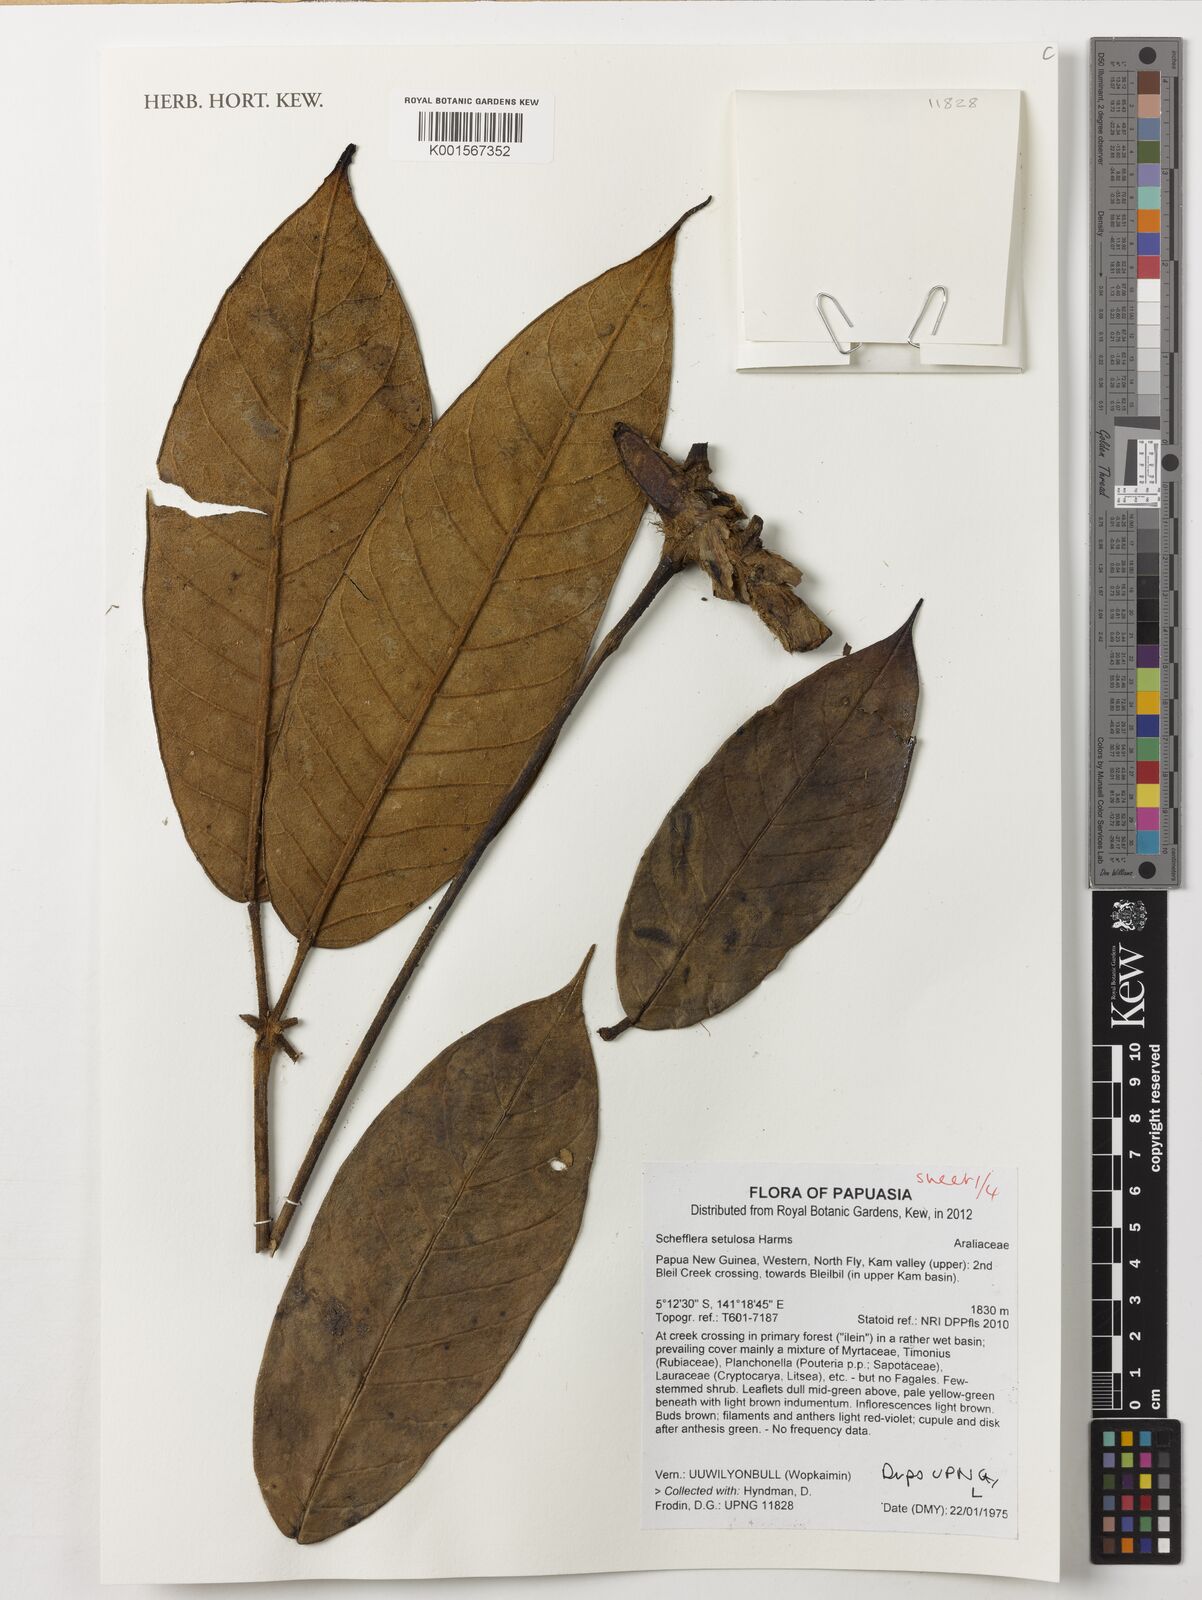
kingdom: Plantae
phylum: Tracheophyta
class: Magnoliopsida
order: Apiales
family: Araliaceae
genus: Heptapleurum
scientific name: Heptapleurum setulosum
